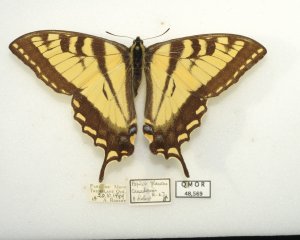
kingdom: Animalia
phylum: Arthropoda
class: Insecta
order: Lepidoptera
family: Papilionidae
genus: Pterourus
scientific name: Pterourus canadensis
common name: Canadian Tiger Swallowtail
